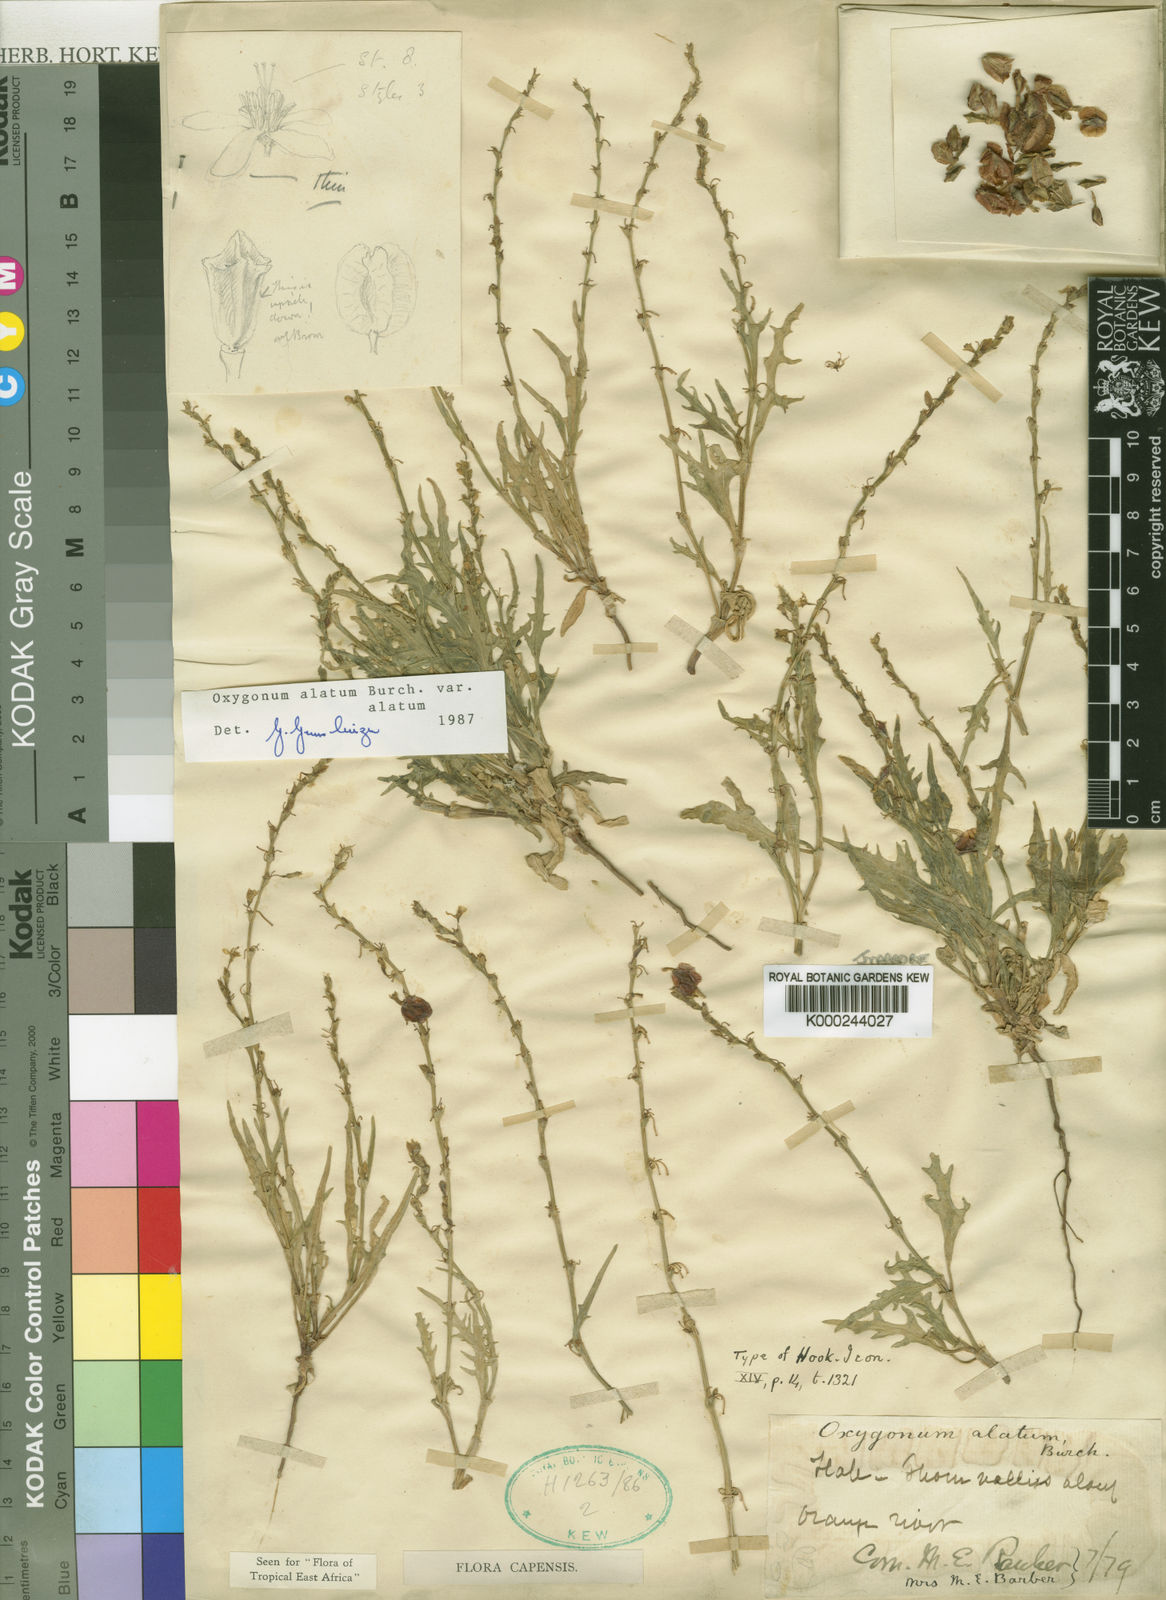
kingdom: Plantae
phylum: Tracheophyta
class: Magnoliopsida
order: Caryophyllales
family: Polygonaceae
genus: Oxygonum
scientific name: Oxygonum alatum
